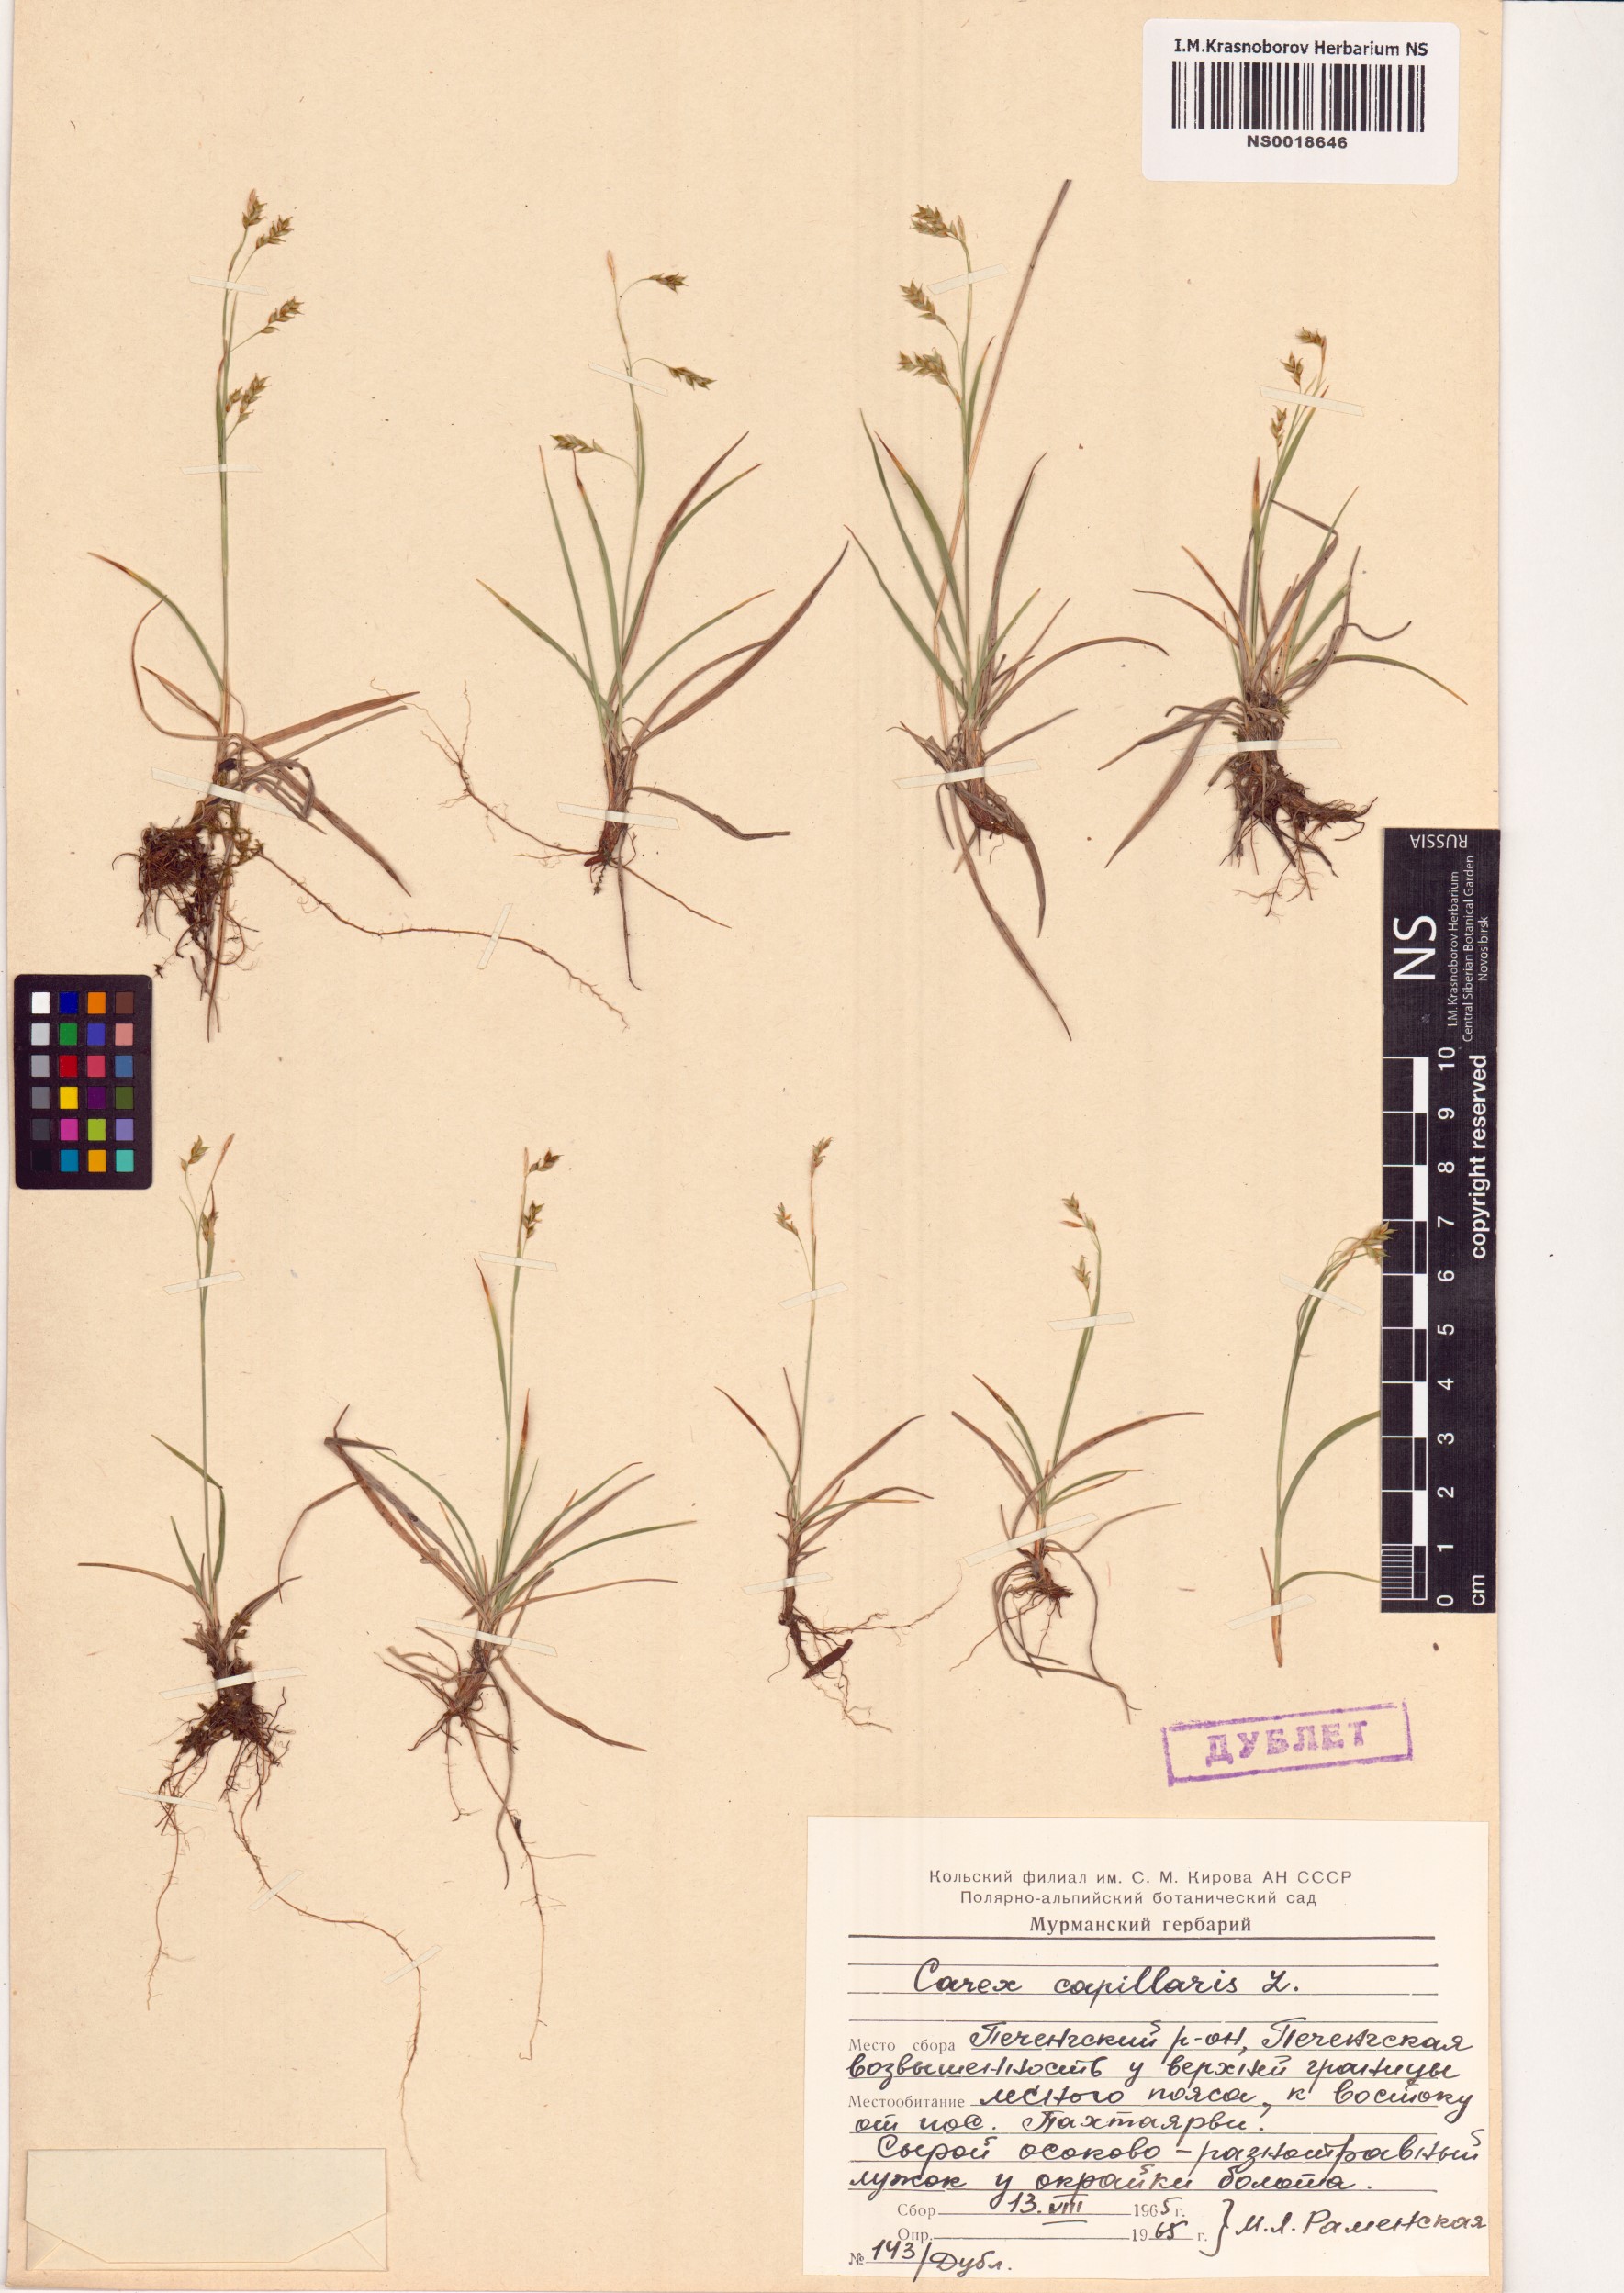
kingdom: Plantae
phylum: Tracheophyta
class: Liliopsida
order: Poales
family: Cyperaceae
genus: Carex
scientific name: Carex capillaris
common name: Hair sedge
